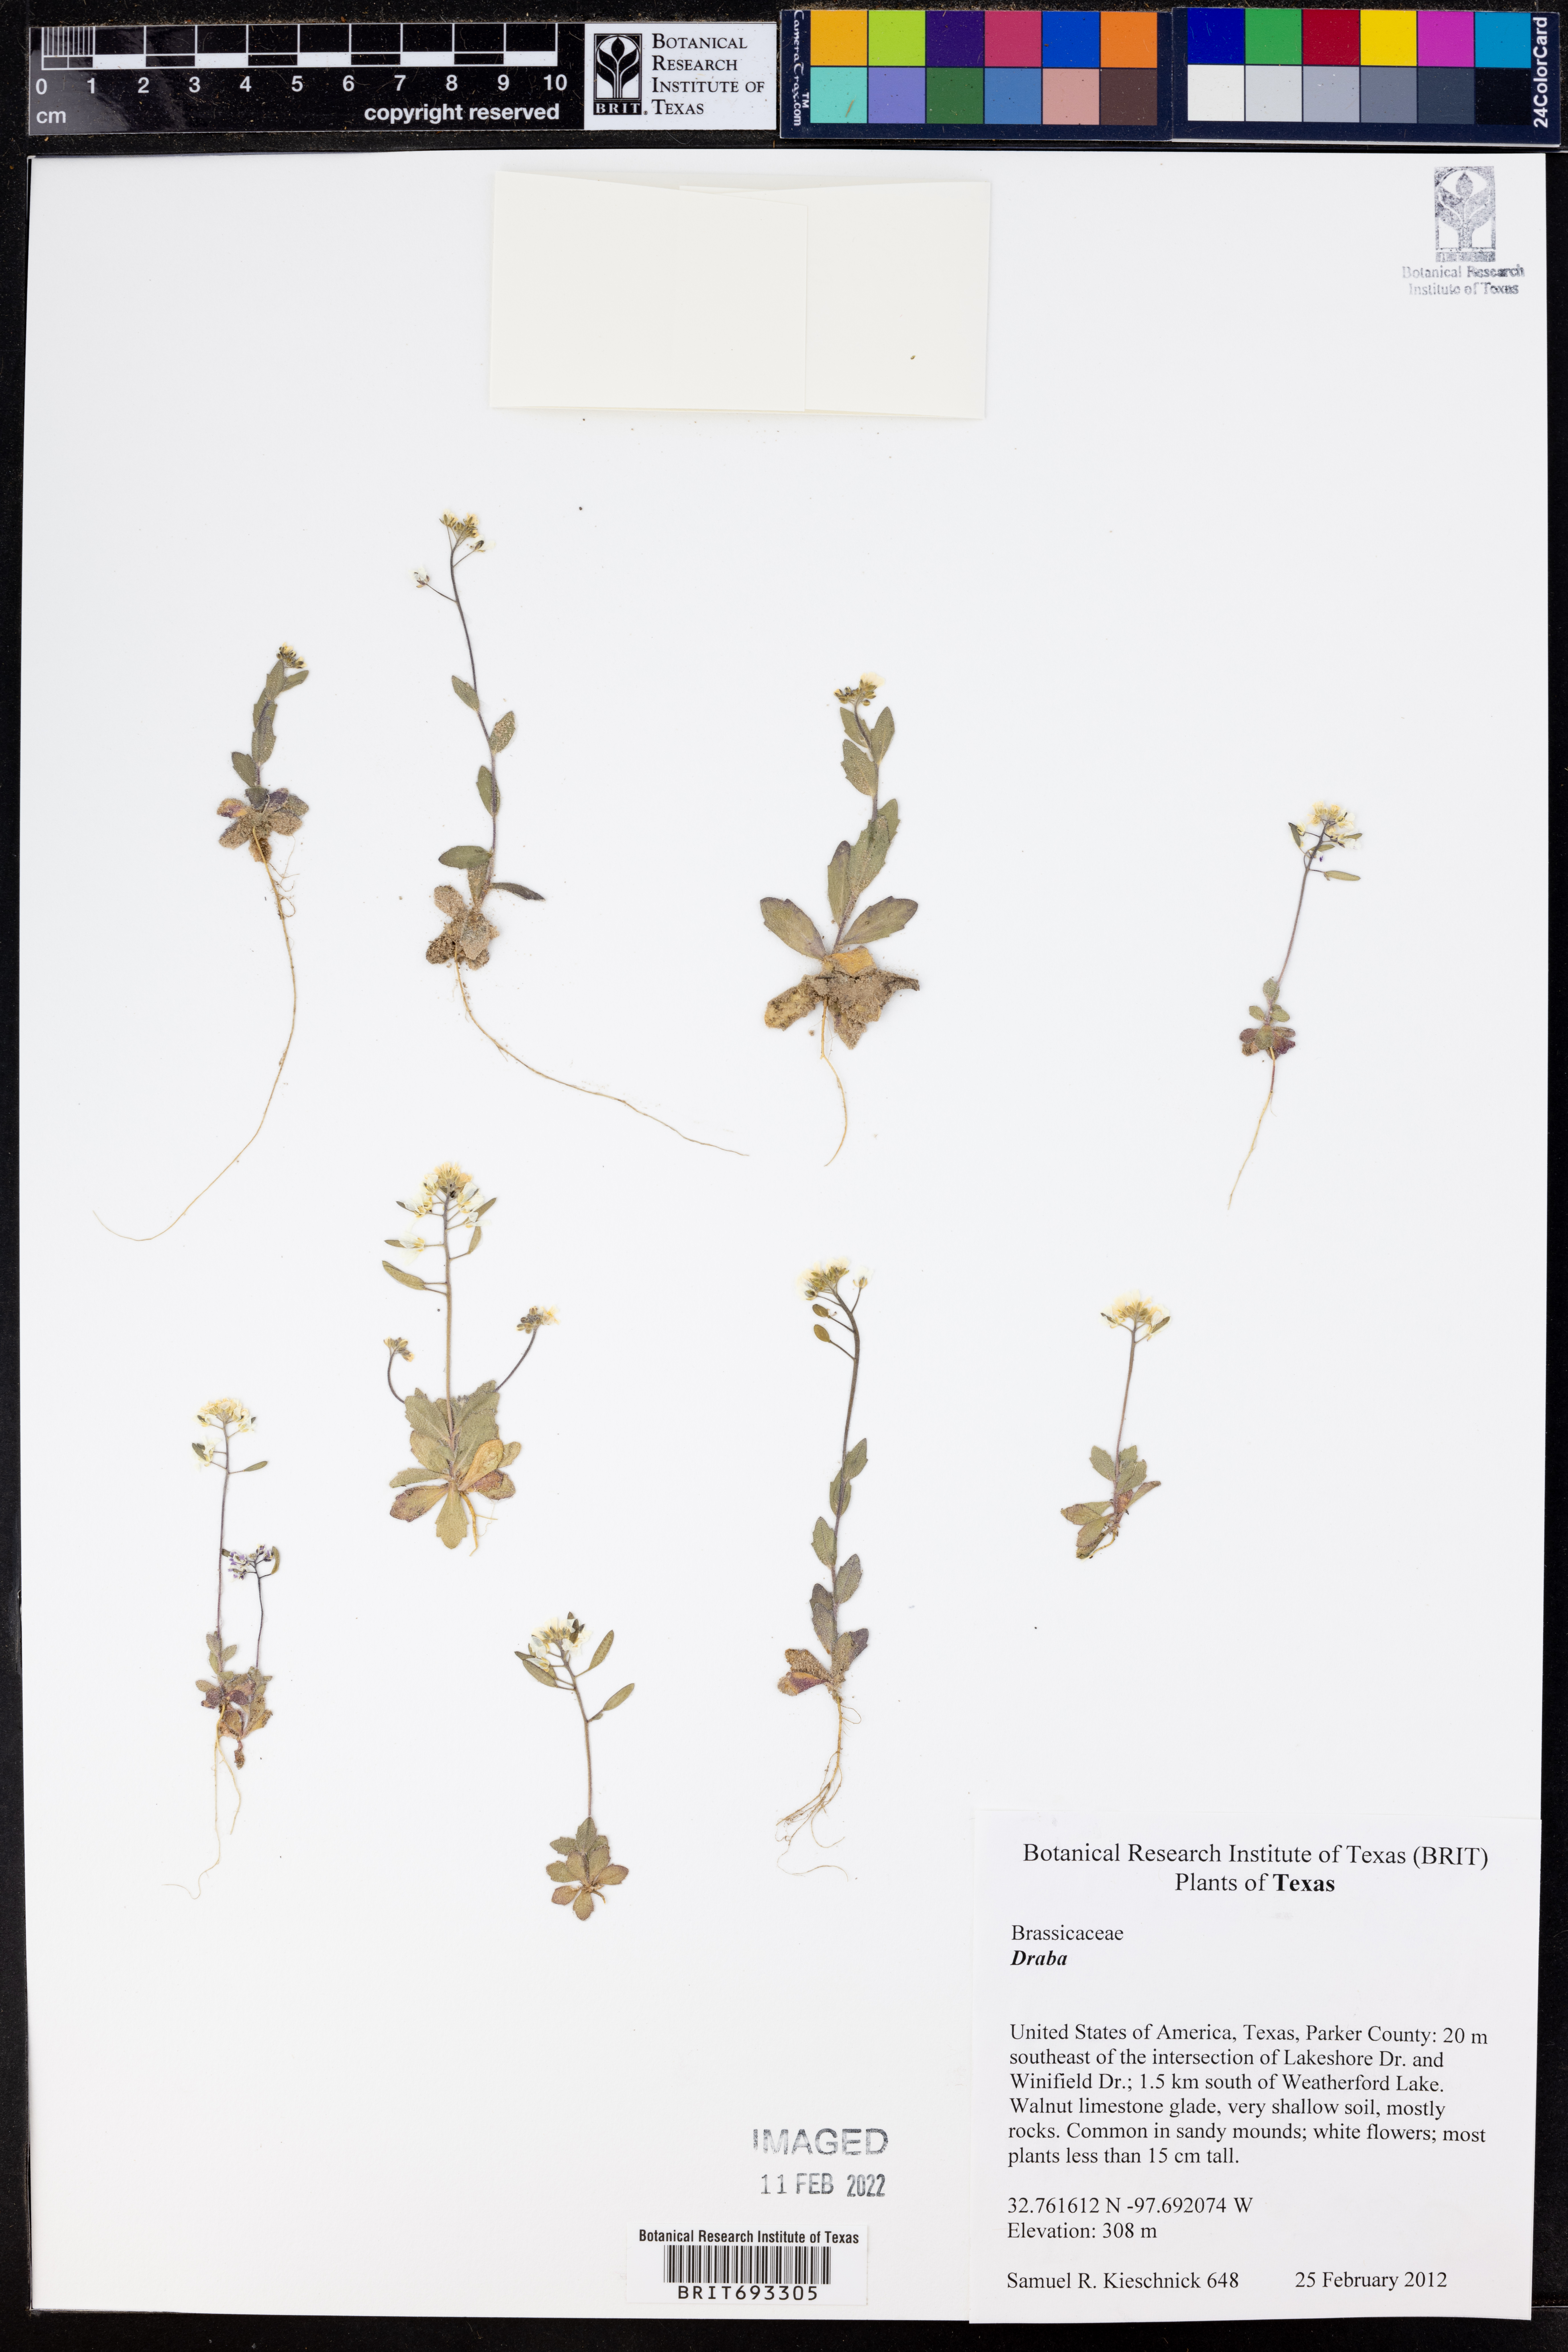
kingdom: Plantae
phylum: Tracheophyta
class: Magnoliopsida
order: Brassicales
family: Brassicaceae
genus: Draba
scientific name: Draba
